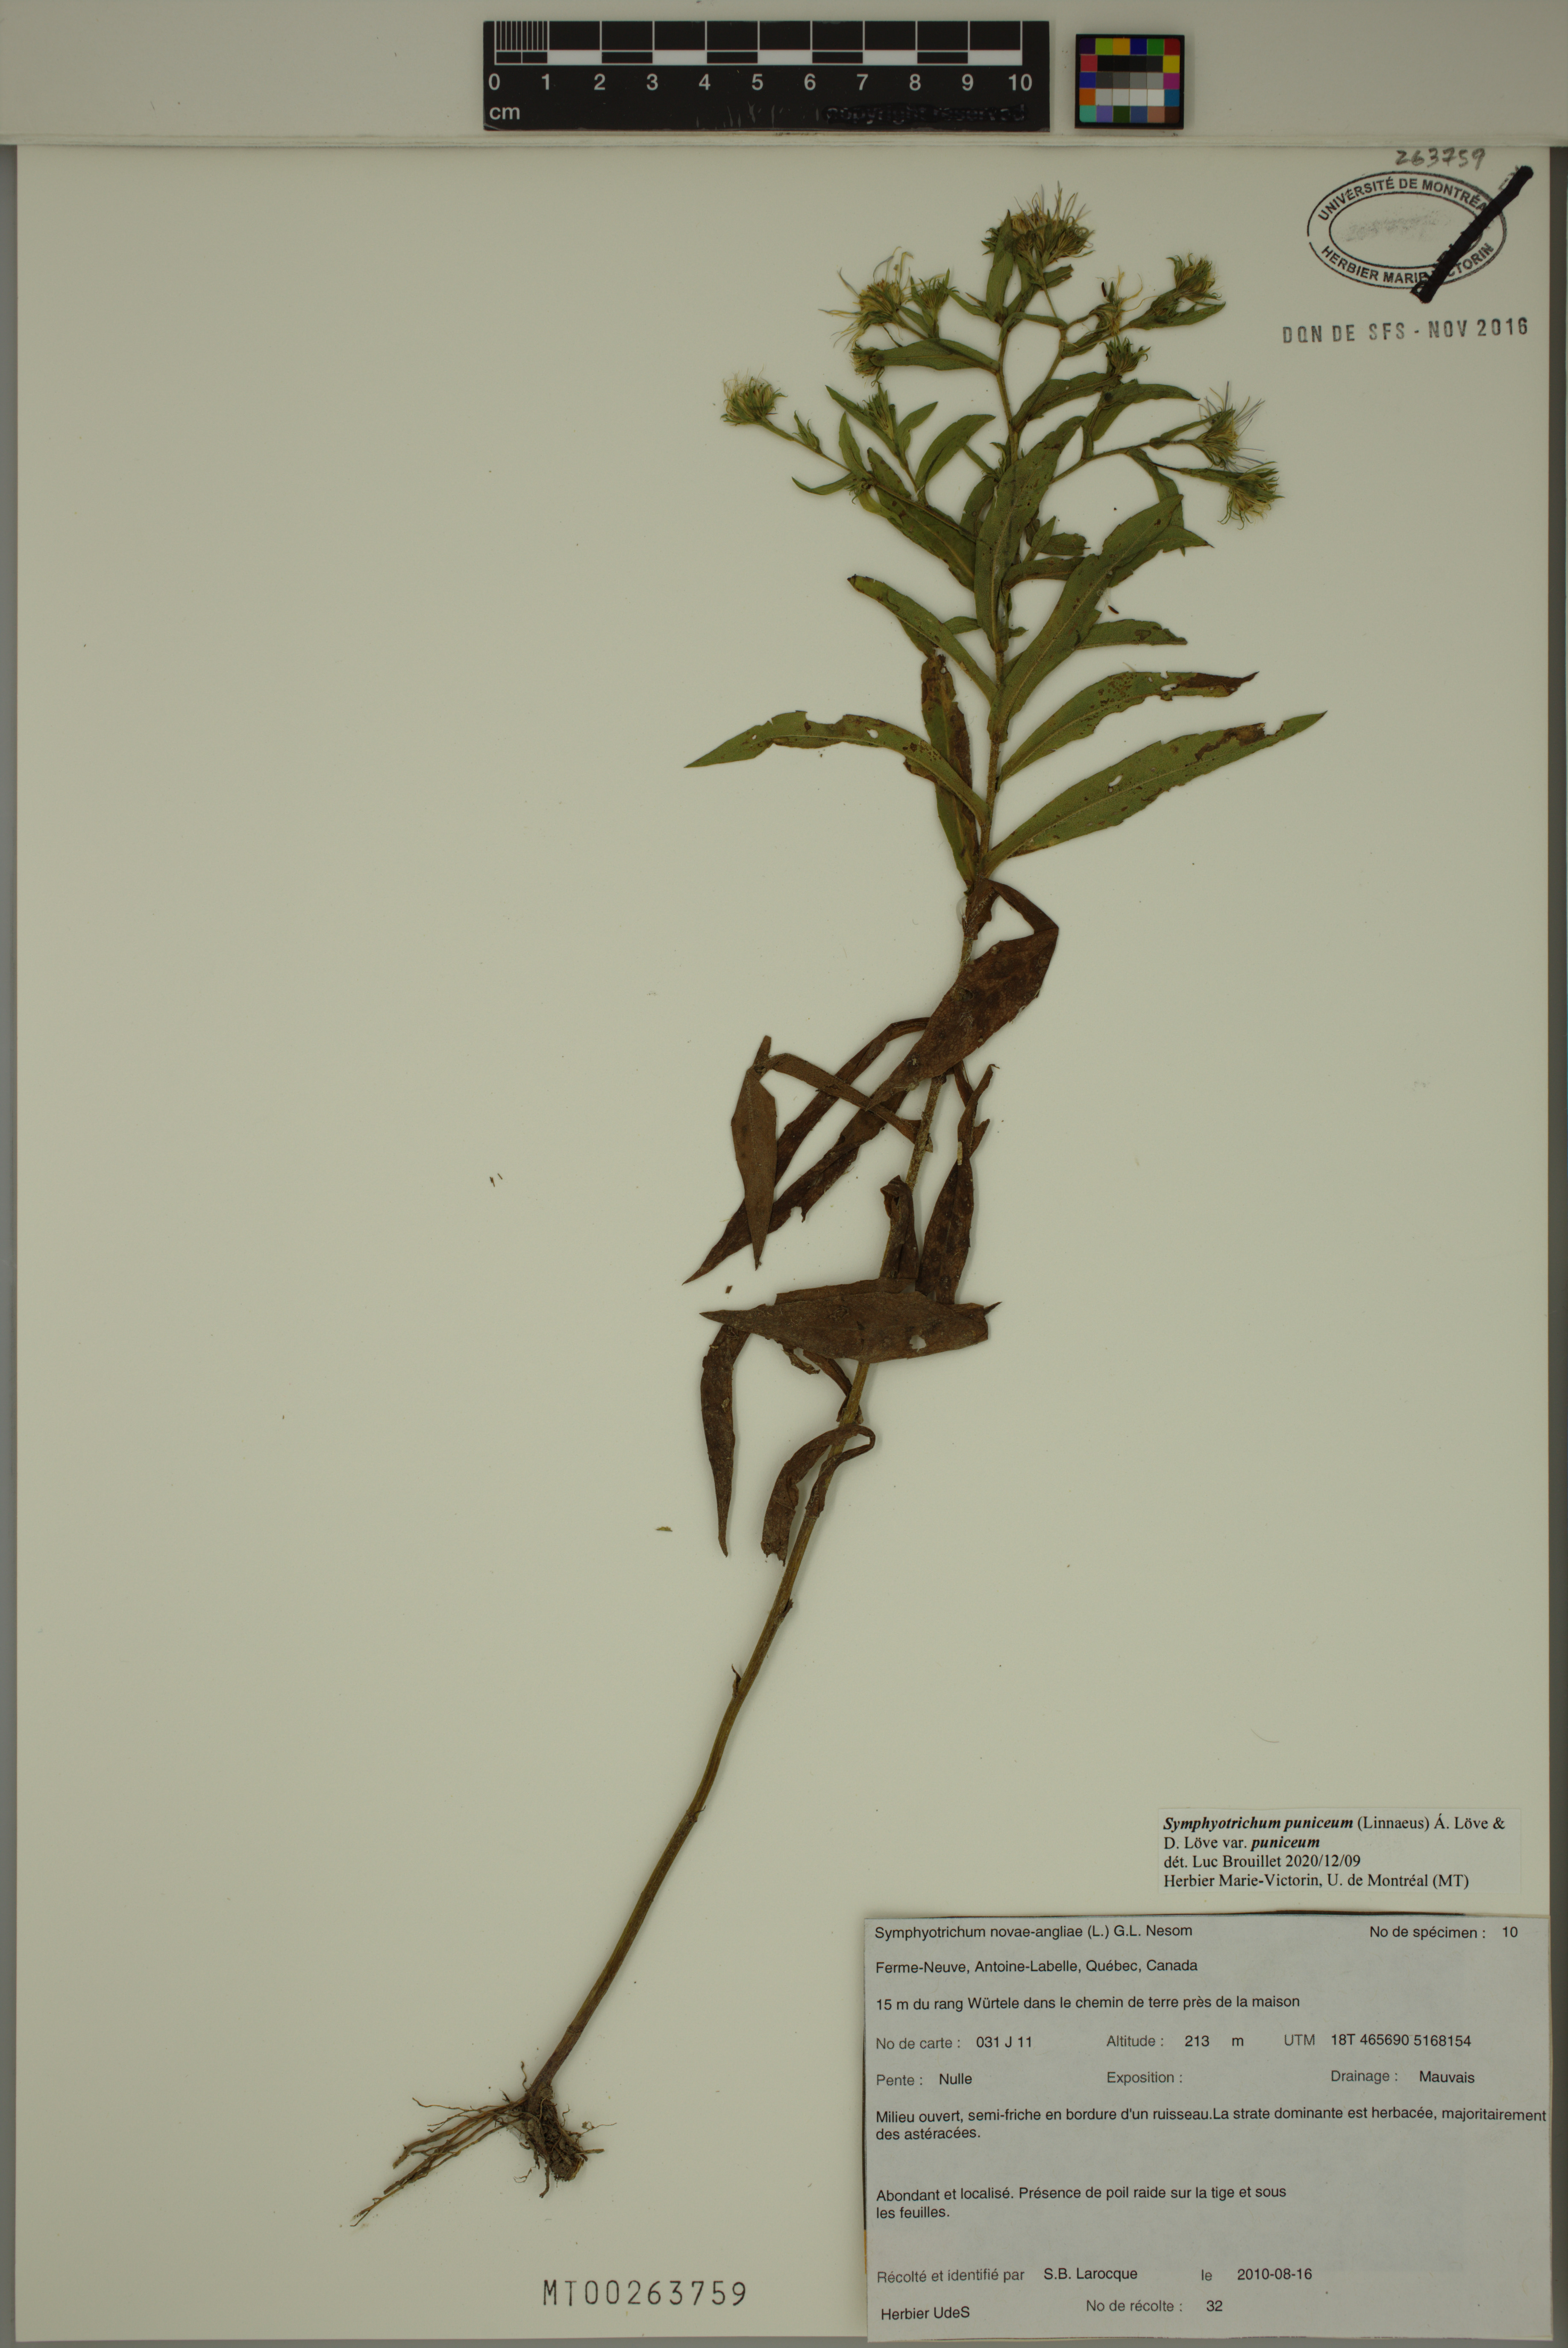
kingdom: Plantae
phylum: Tracheophyta
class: Magnoliopsida
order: Asterales
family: Asteraceae
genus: Symphyotrichum
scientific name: Symphyotrichum puniceum
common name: Bog aster
